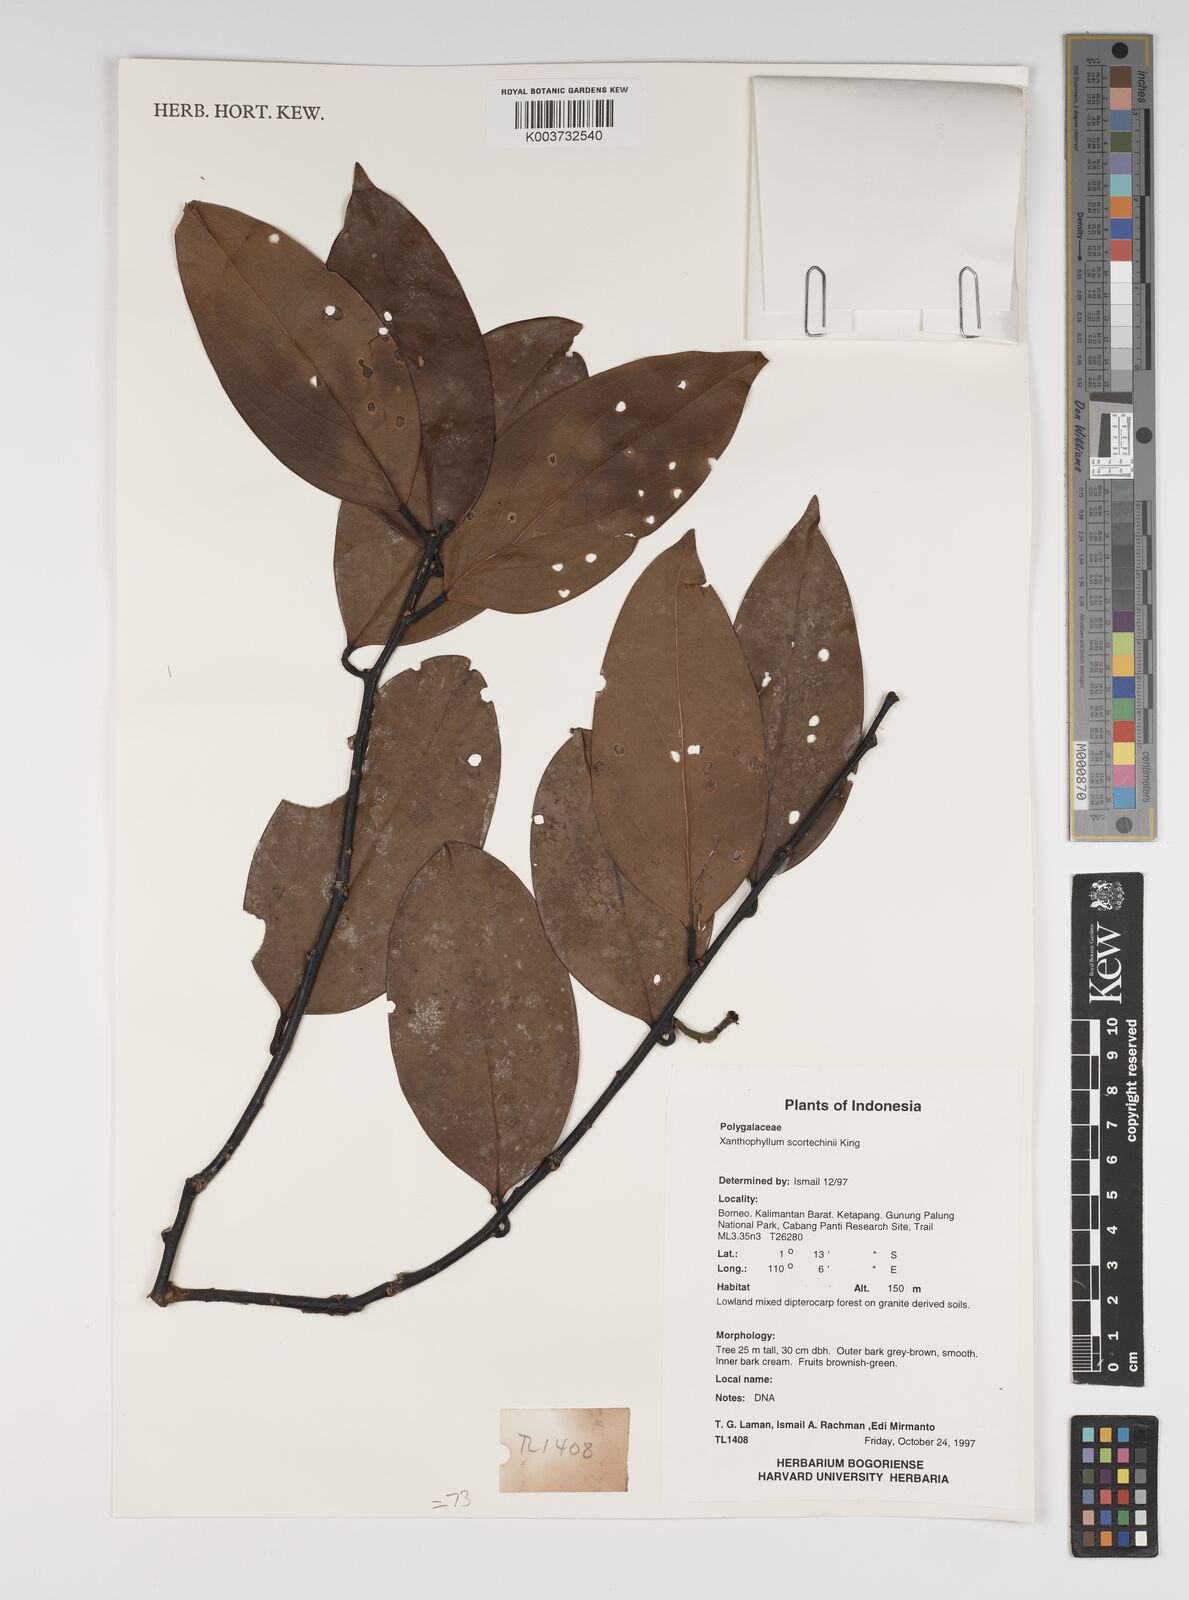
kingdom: Plantae
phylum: Tracheophyta
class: Magnoliopsida
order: Fabales
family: Polygalaceae
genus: Xanthophyllum
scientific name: Xanthophyllum obscurum
